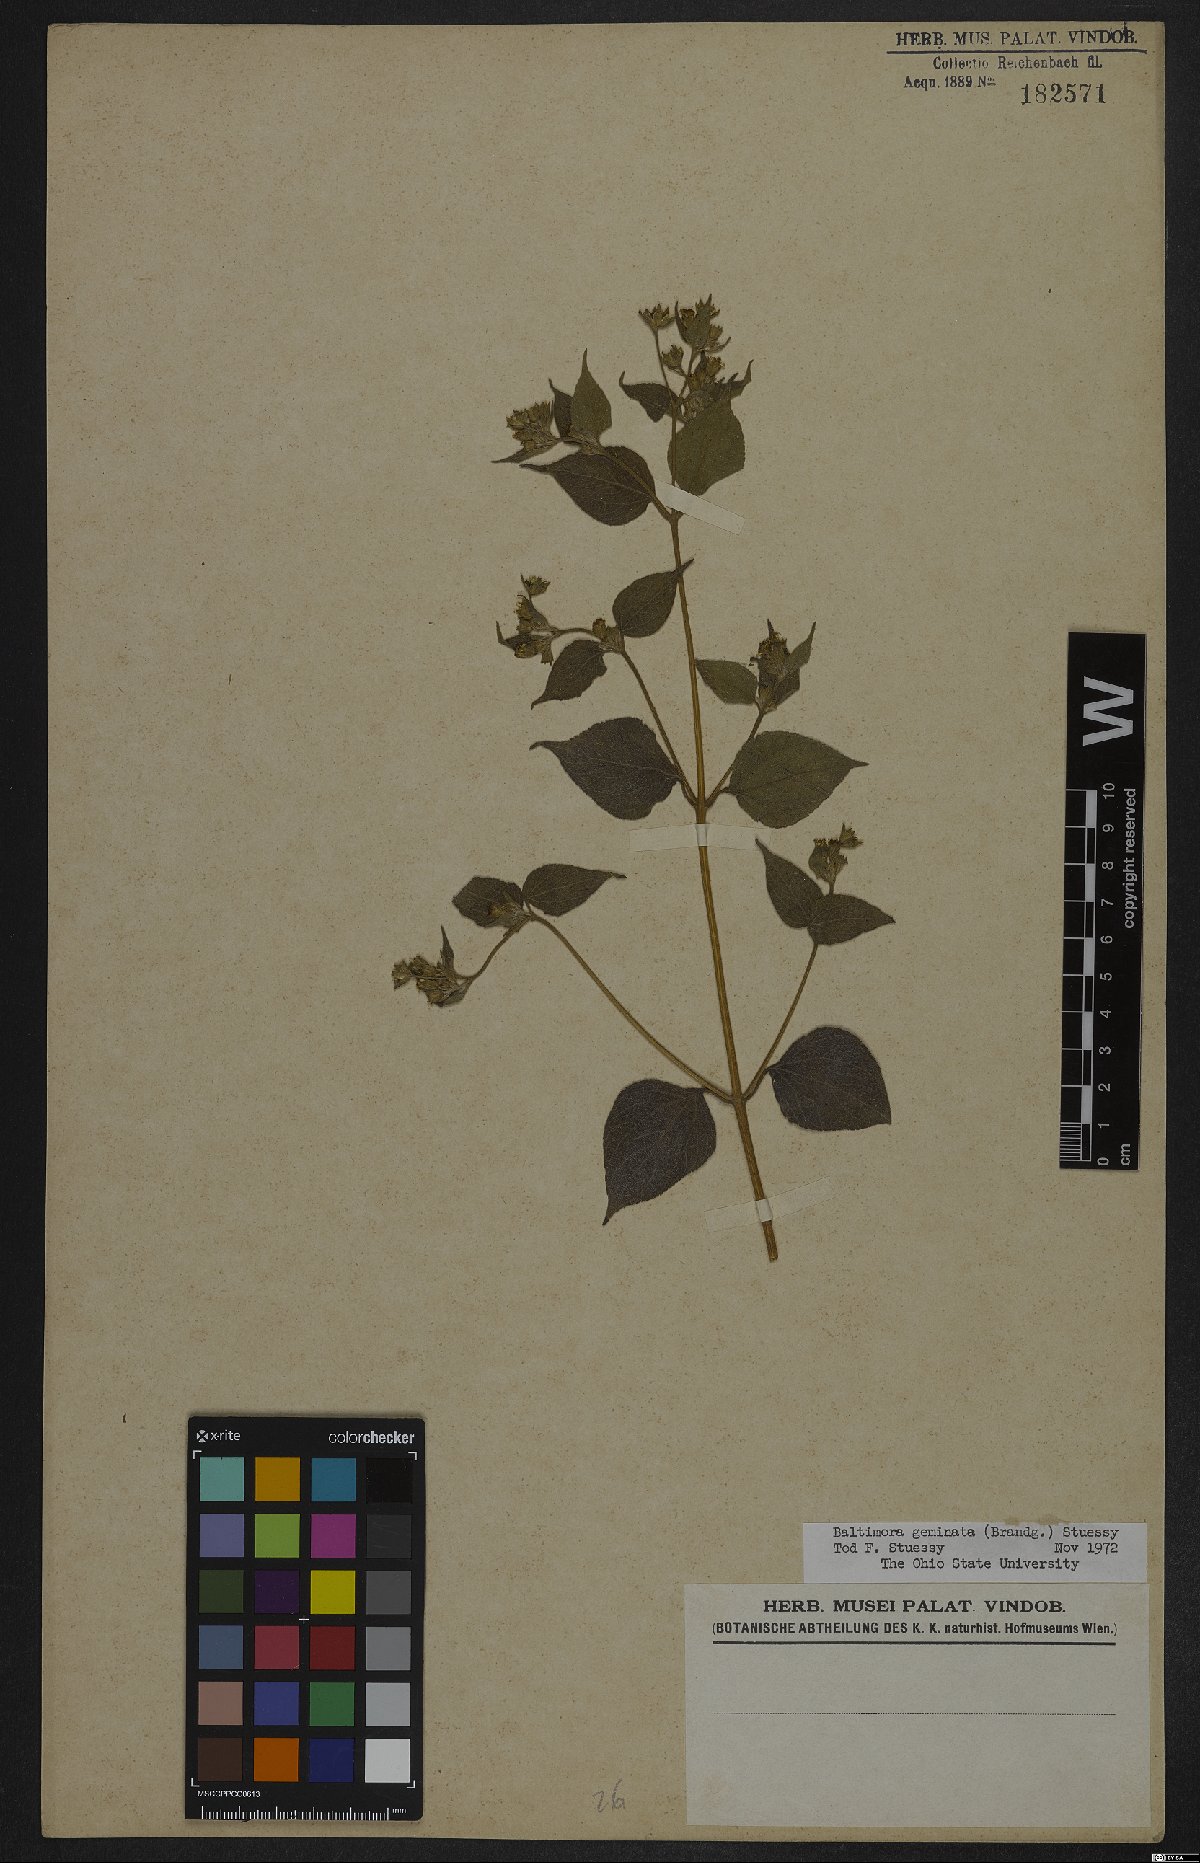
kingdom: Plantae
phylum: Tracheophyta
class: Magnoliopsida
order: Asterales
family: Asteraceae
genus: Baltimora
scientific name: Baltimora geminata
